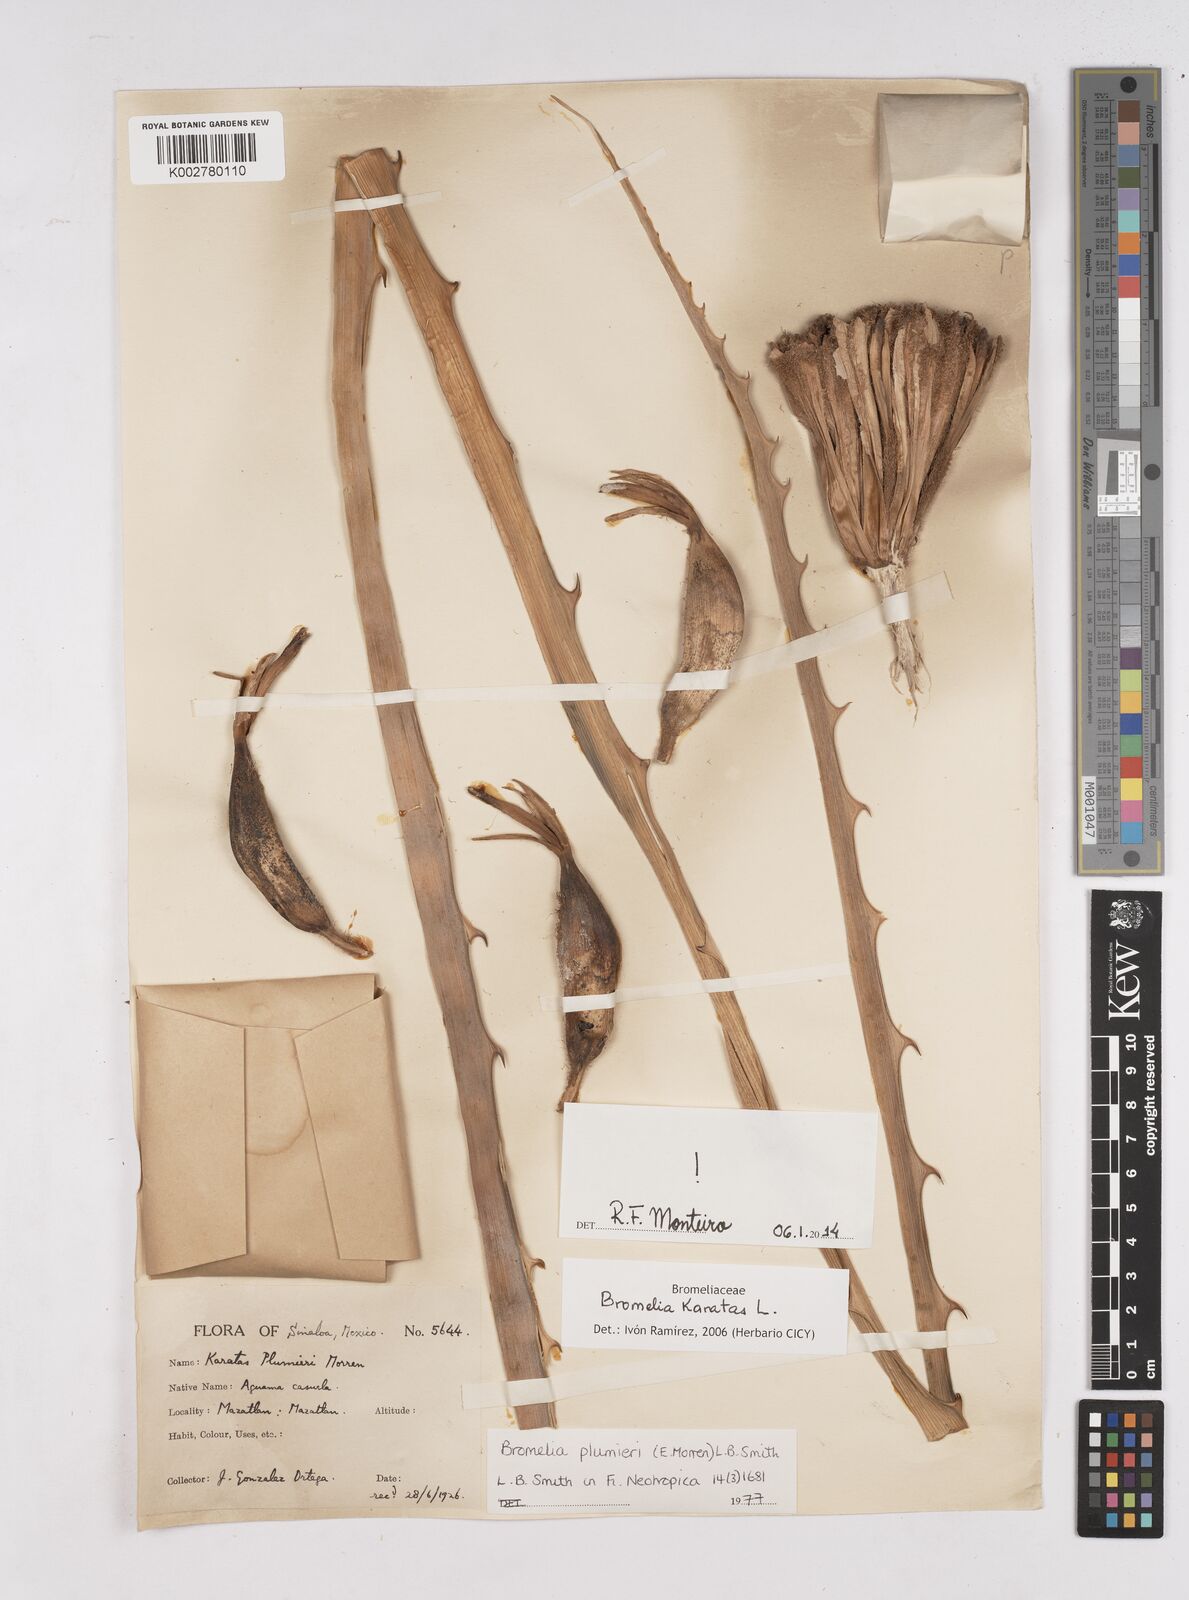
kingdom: Plantae
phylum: Tracheophyta
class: Liliopsida
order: Poales
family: Bromeliaceae
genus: Bromelia
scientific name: Bromelia karatas
